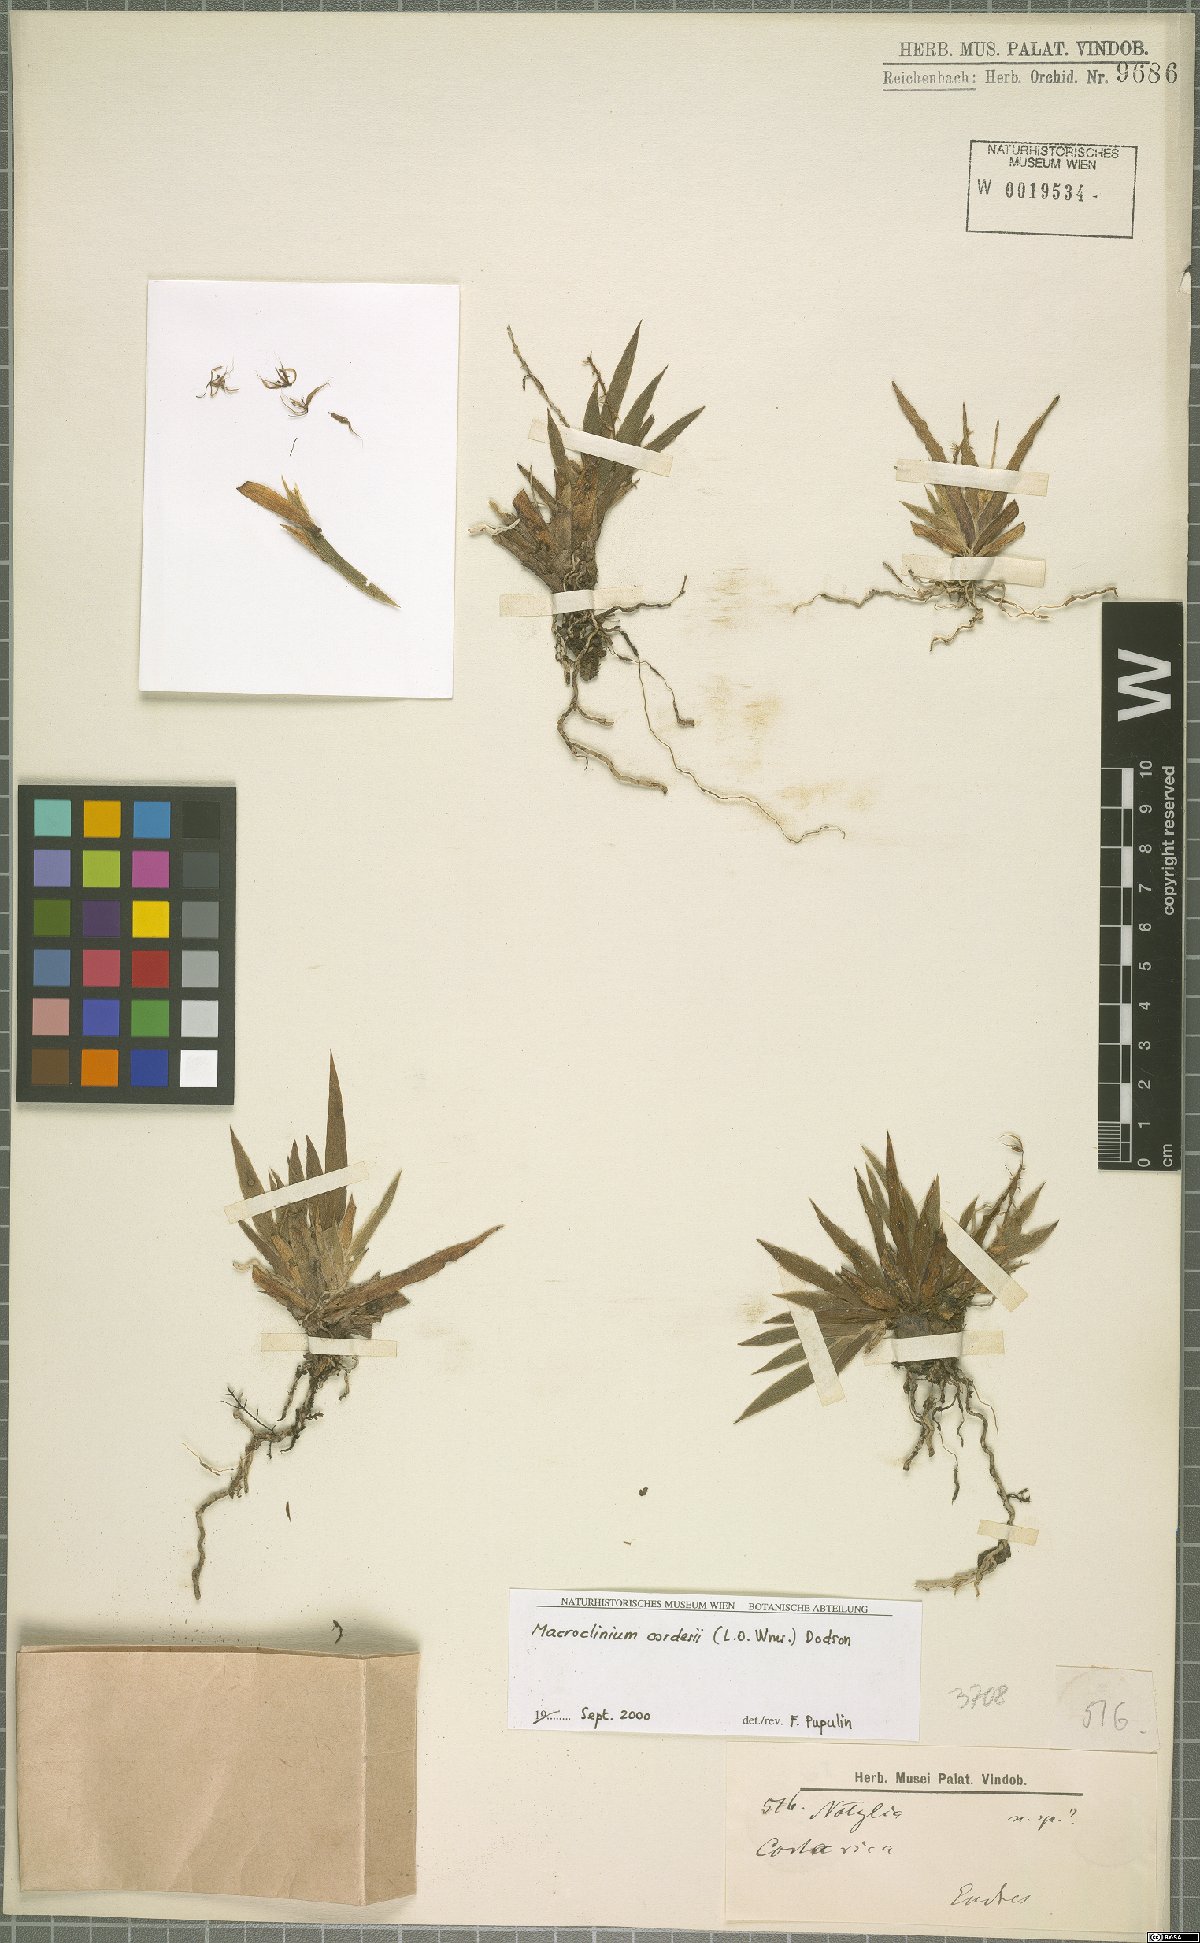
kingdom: Plantae
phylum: Tracheophyta
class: Liliopsida
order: Asparagales
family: Orchidaceae
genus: Macroclinium
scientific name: Macroclinium cordesii
